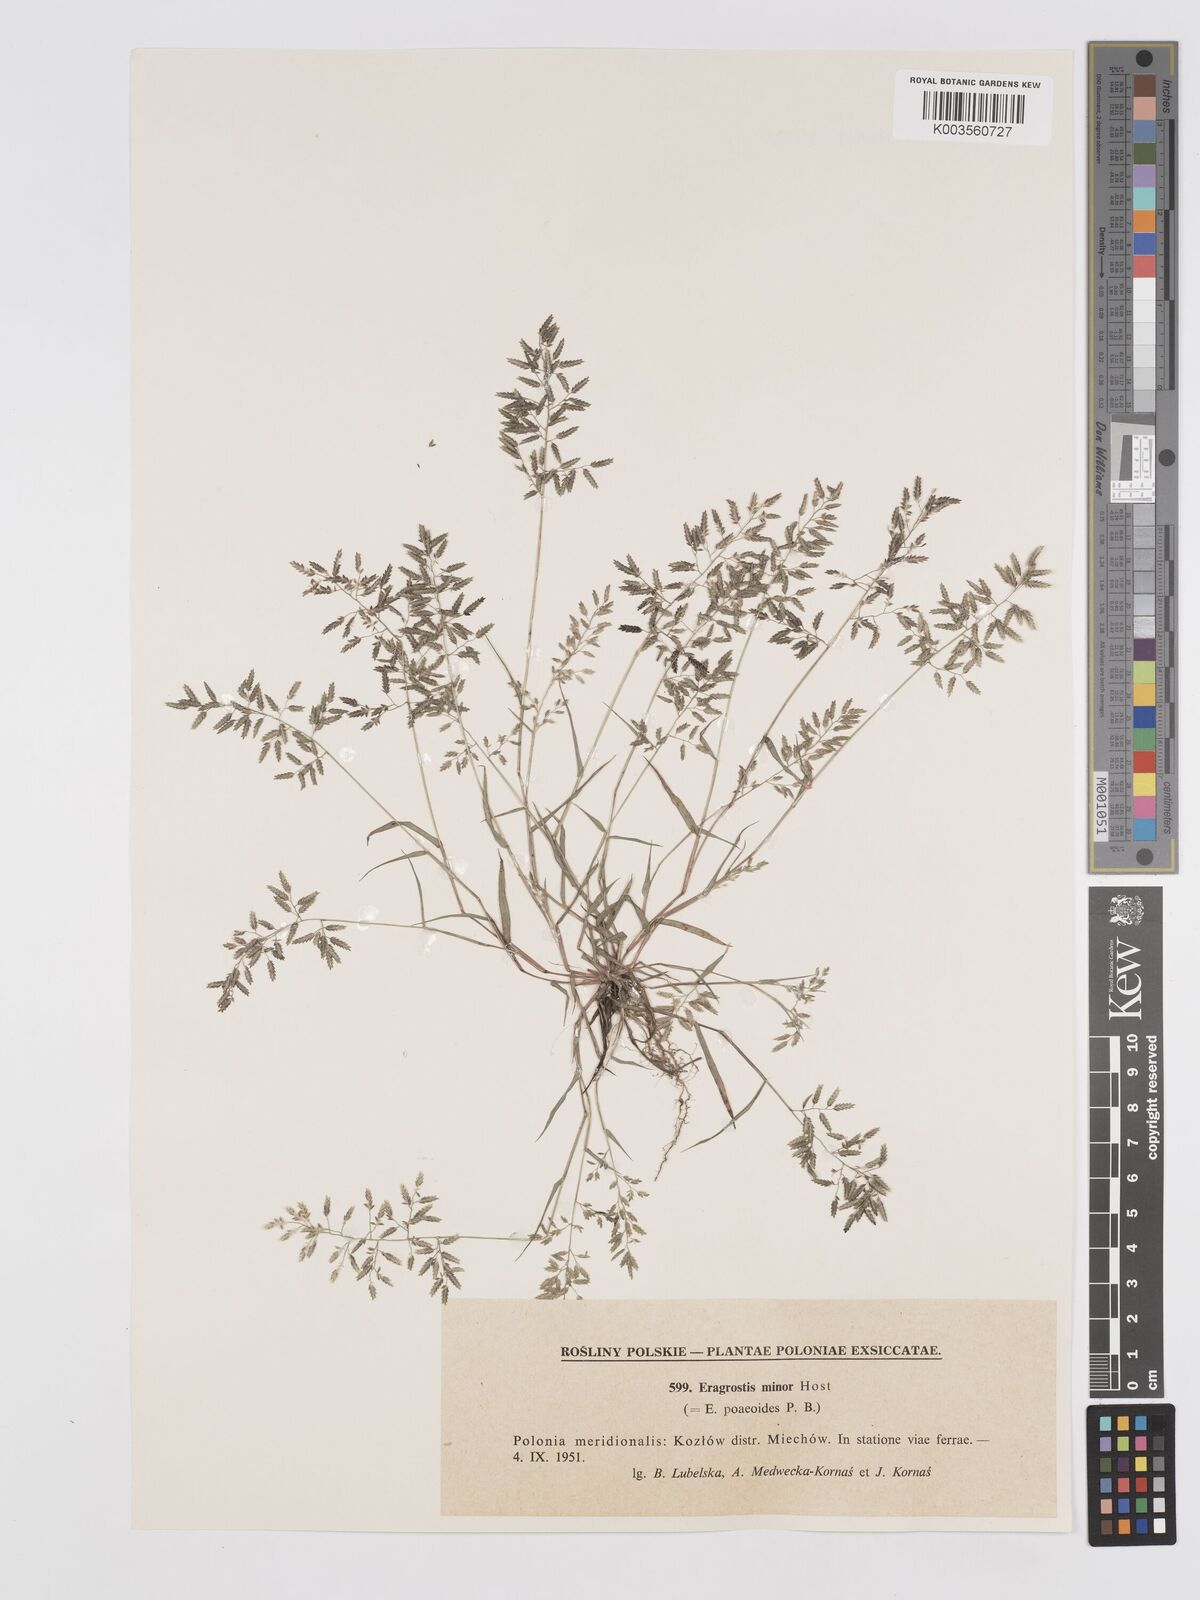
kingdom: Plantae
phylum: Tracheophyta
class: Liliopsida
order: Poales
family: Poaceae
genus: Eragrostis
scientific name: Eragrostis minor
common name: Small love-grass
